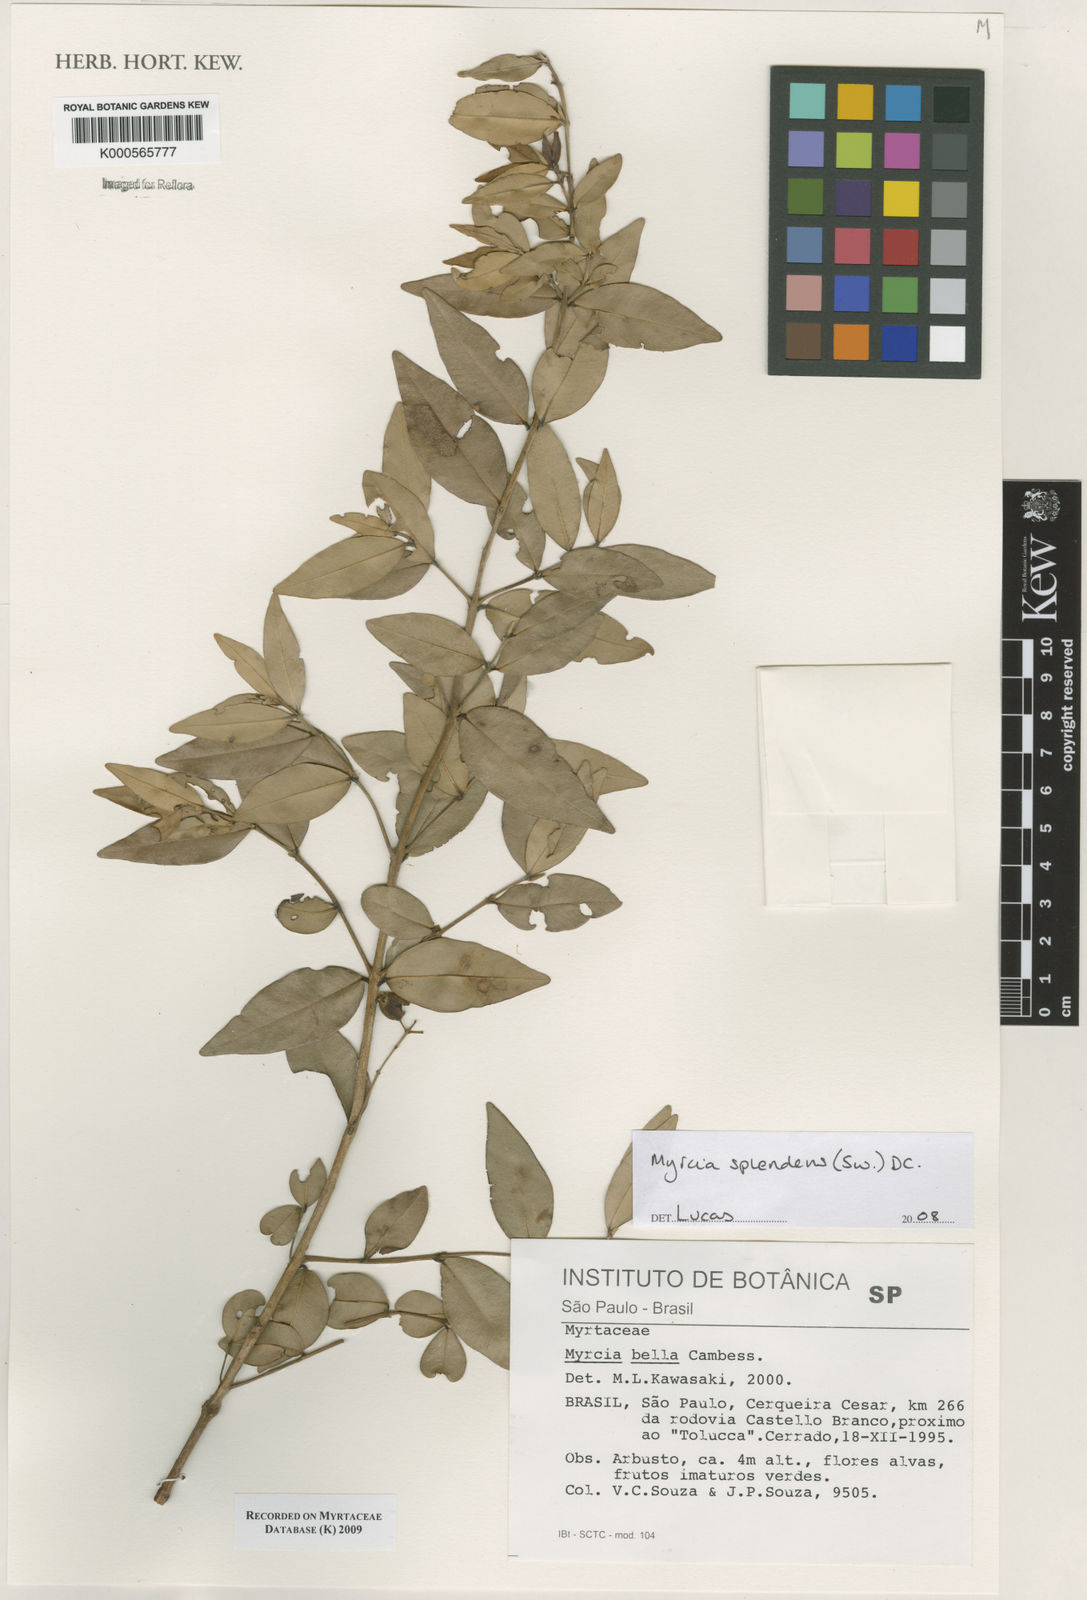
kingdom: Plantae
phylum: Tracheophyta
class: Magnoliopsida
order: Myrtales
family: Myrtaceae
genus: Myrcia
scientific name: Myrcia bella
